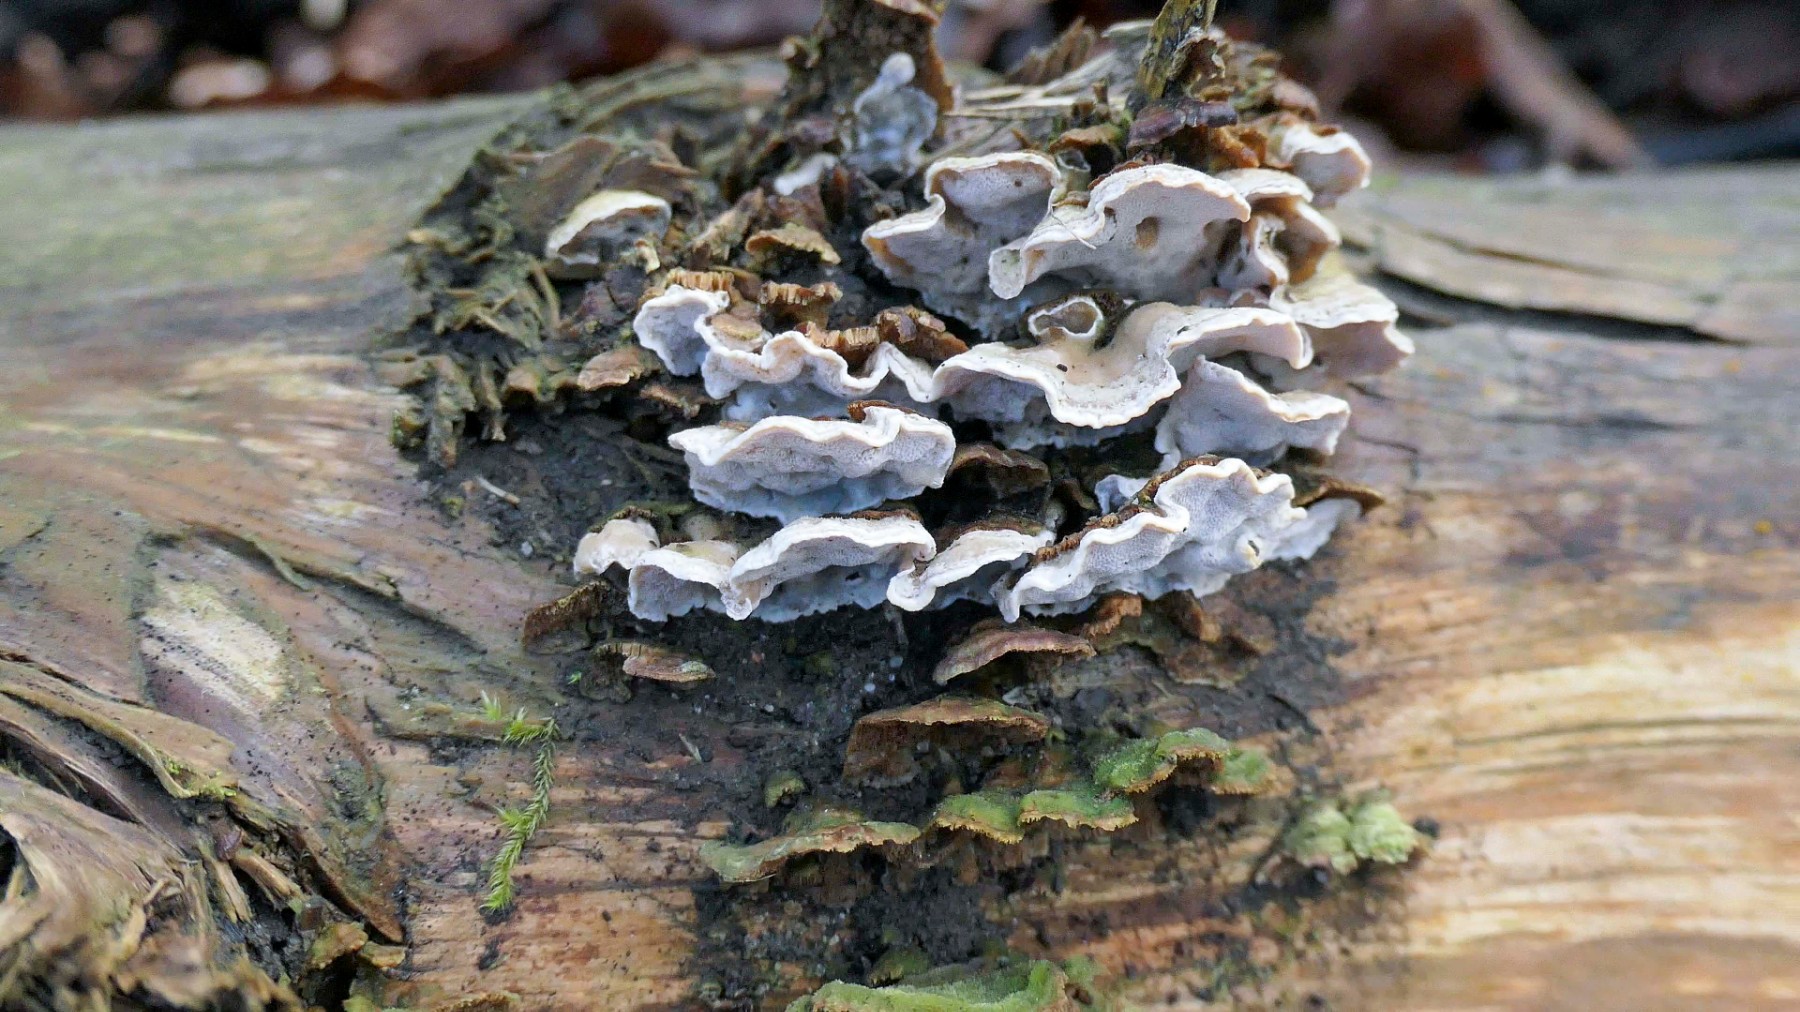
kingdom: Fungi
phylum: Basidiomycota
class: Agaricomycetes
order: Polyporales
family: Incrustoporiaceae
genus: Skeletocutis
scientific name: Skeletocutis carneogrisea
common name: rødgrå krystalporesvamp
